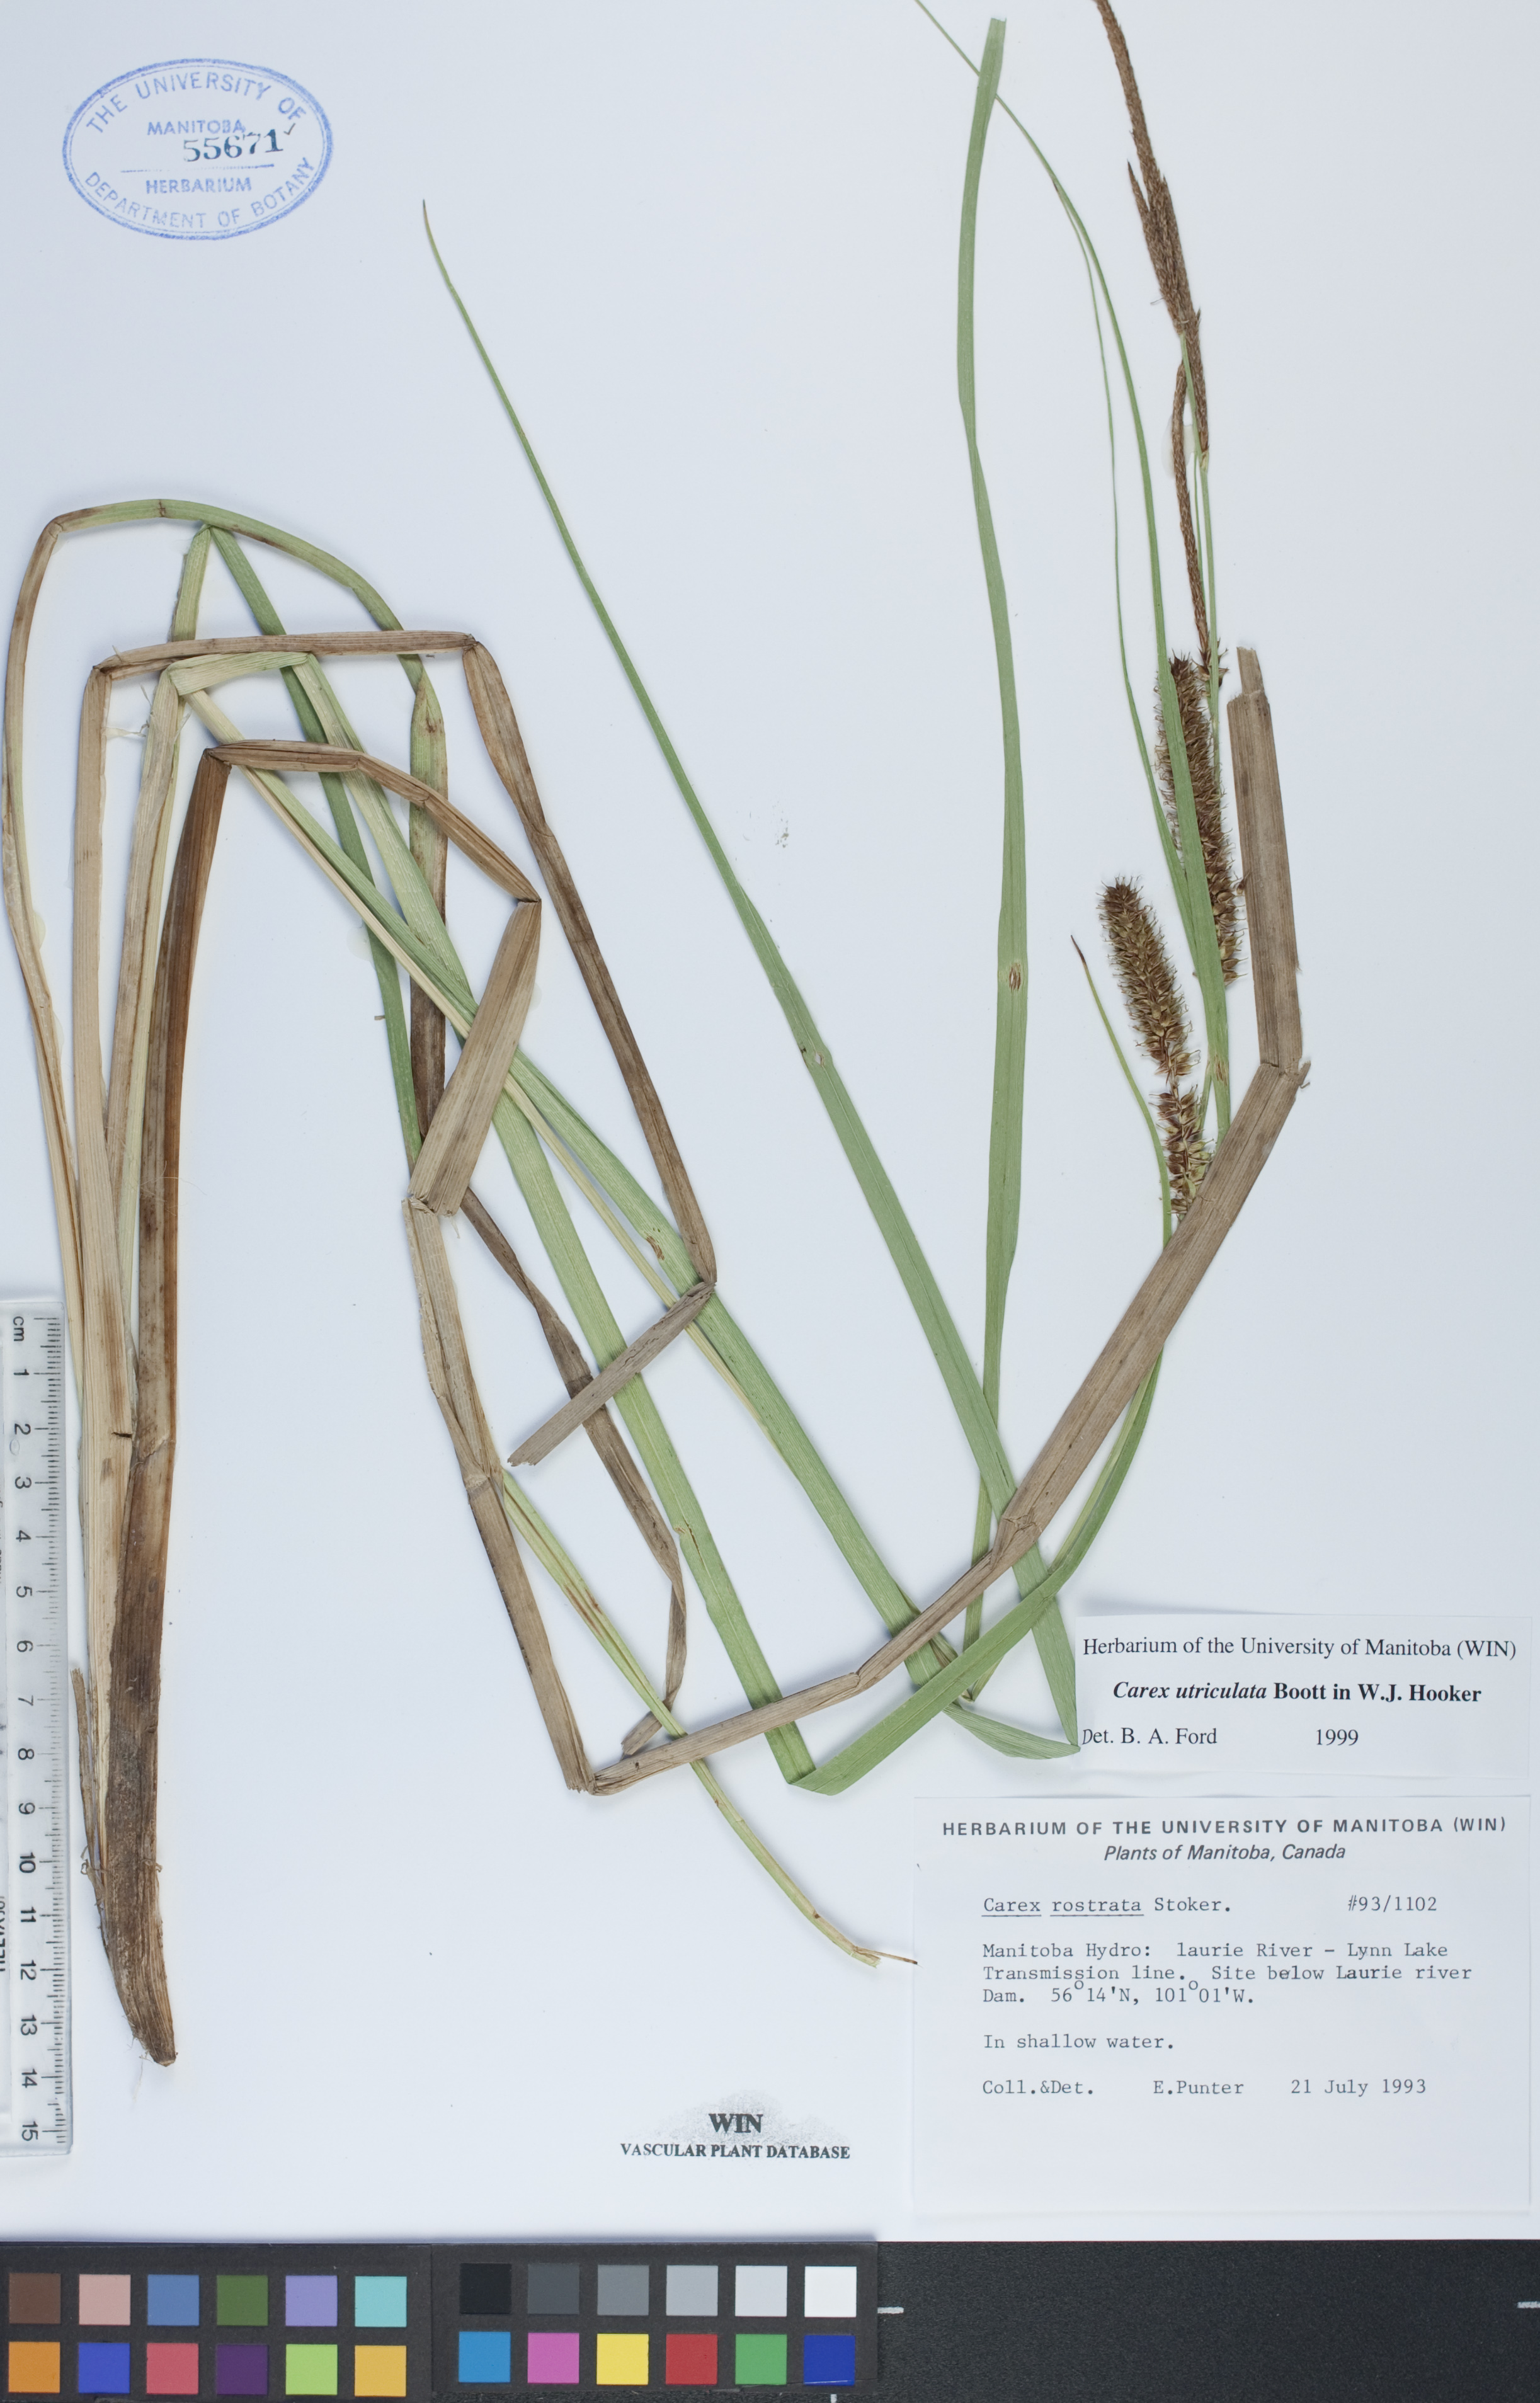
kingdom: Plantae
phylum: Tracheophyta
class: Liliopsida
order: Poales
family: Cyperaceae
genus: Carex
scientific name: Carex utriculata
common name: Beaked sedge
